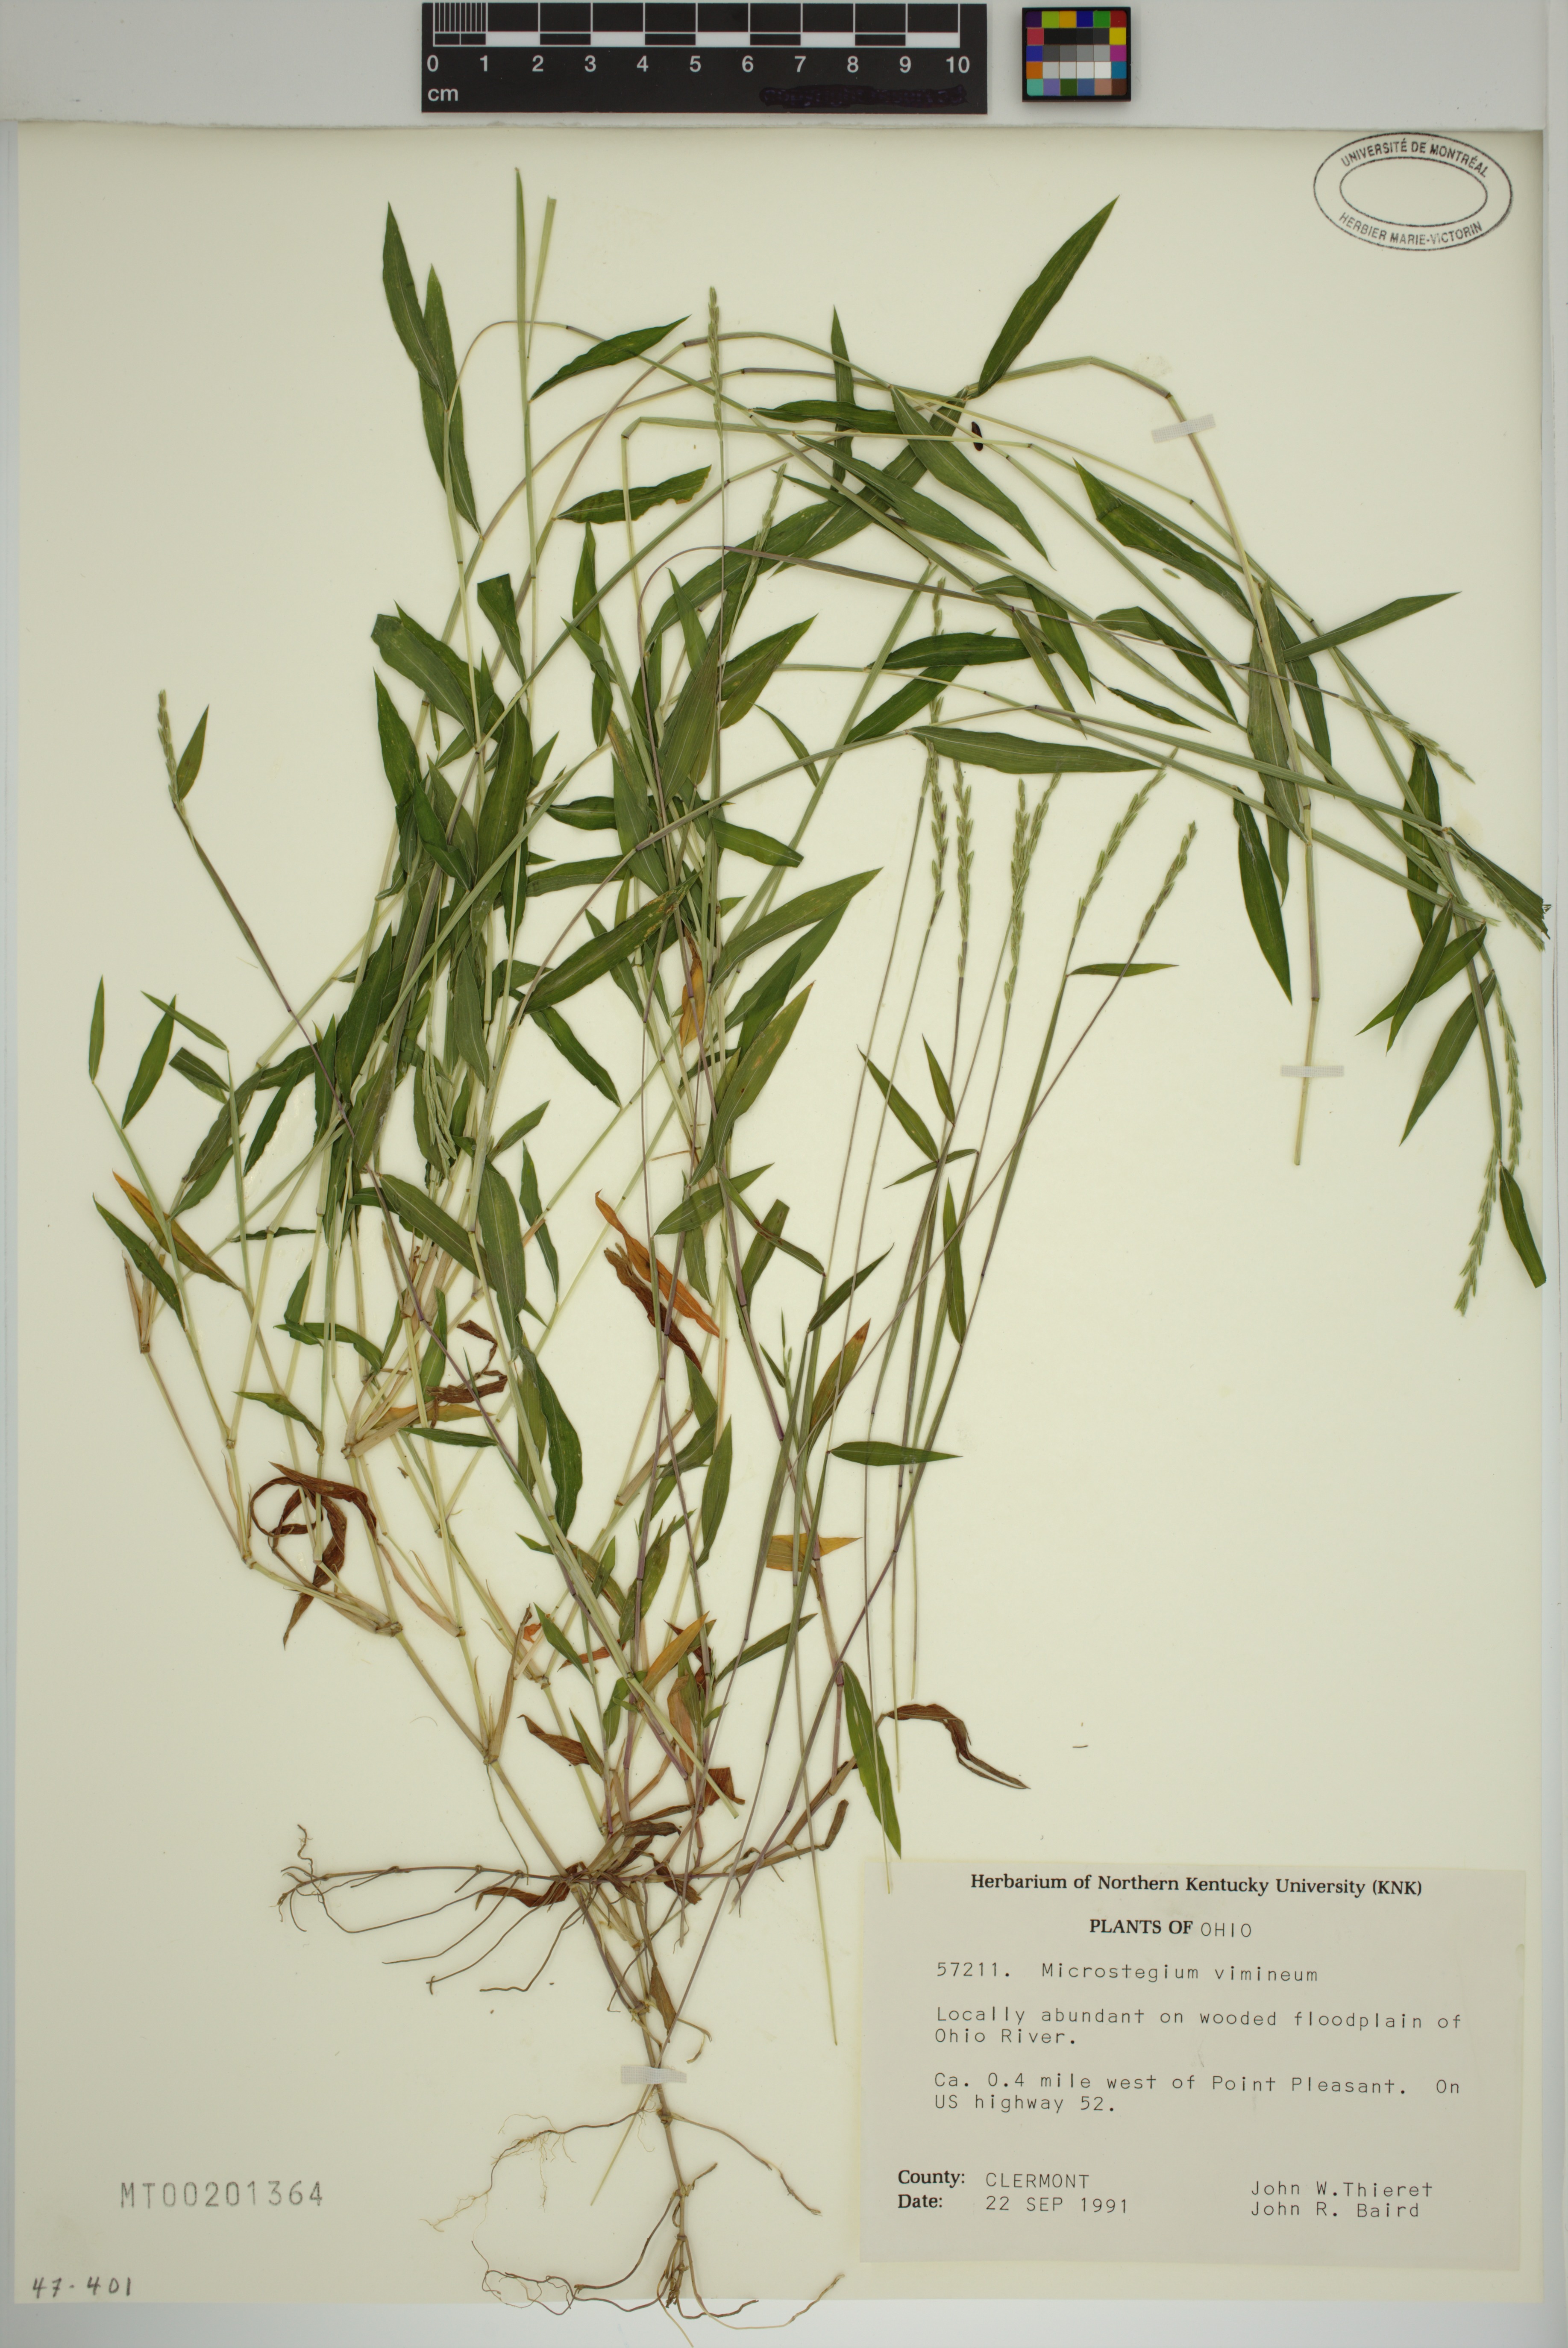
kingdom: Plantae
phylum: Tracheophyta
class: Liliopsida
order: Poales
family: Poaceae
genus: Microstegium
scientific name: Microstegium vimineum
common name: Japanese stiltgrass
